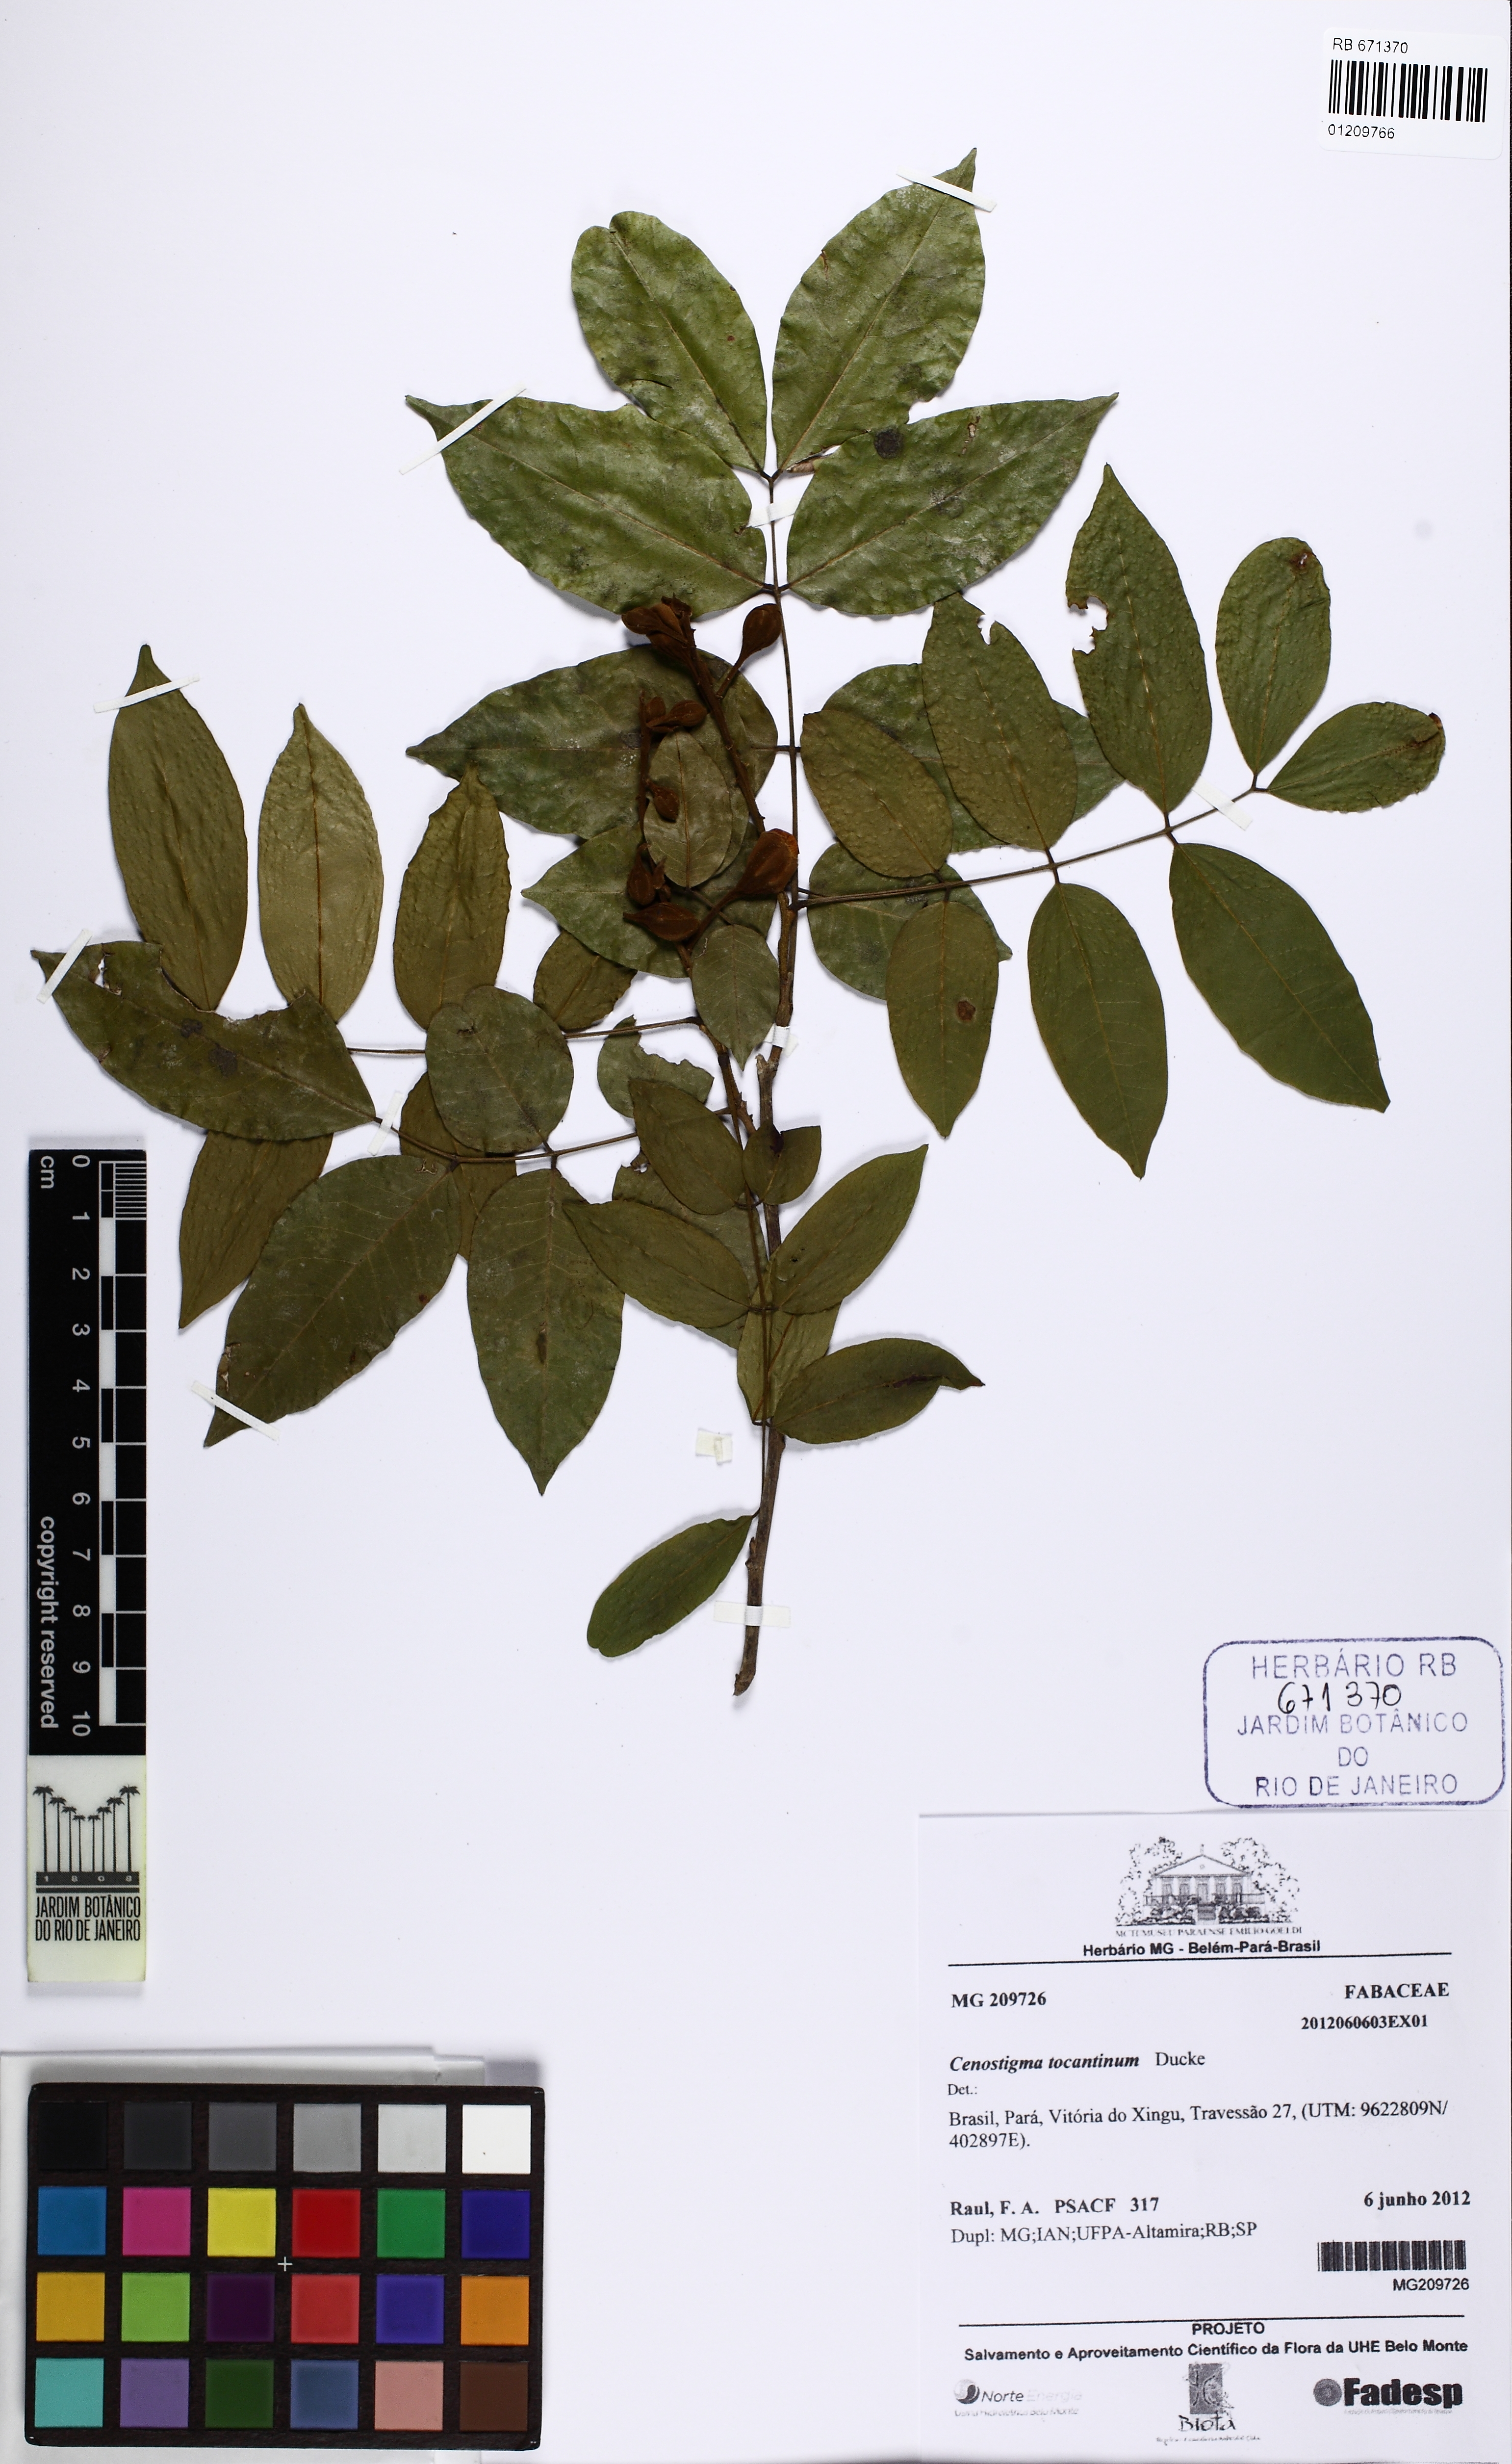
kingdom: Plantae
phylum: Tracheophyta
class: Magnoliopsida
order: Fabales
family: Fabaceae
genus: Cenostigma
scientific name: Cenostigma tocantinum
